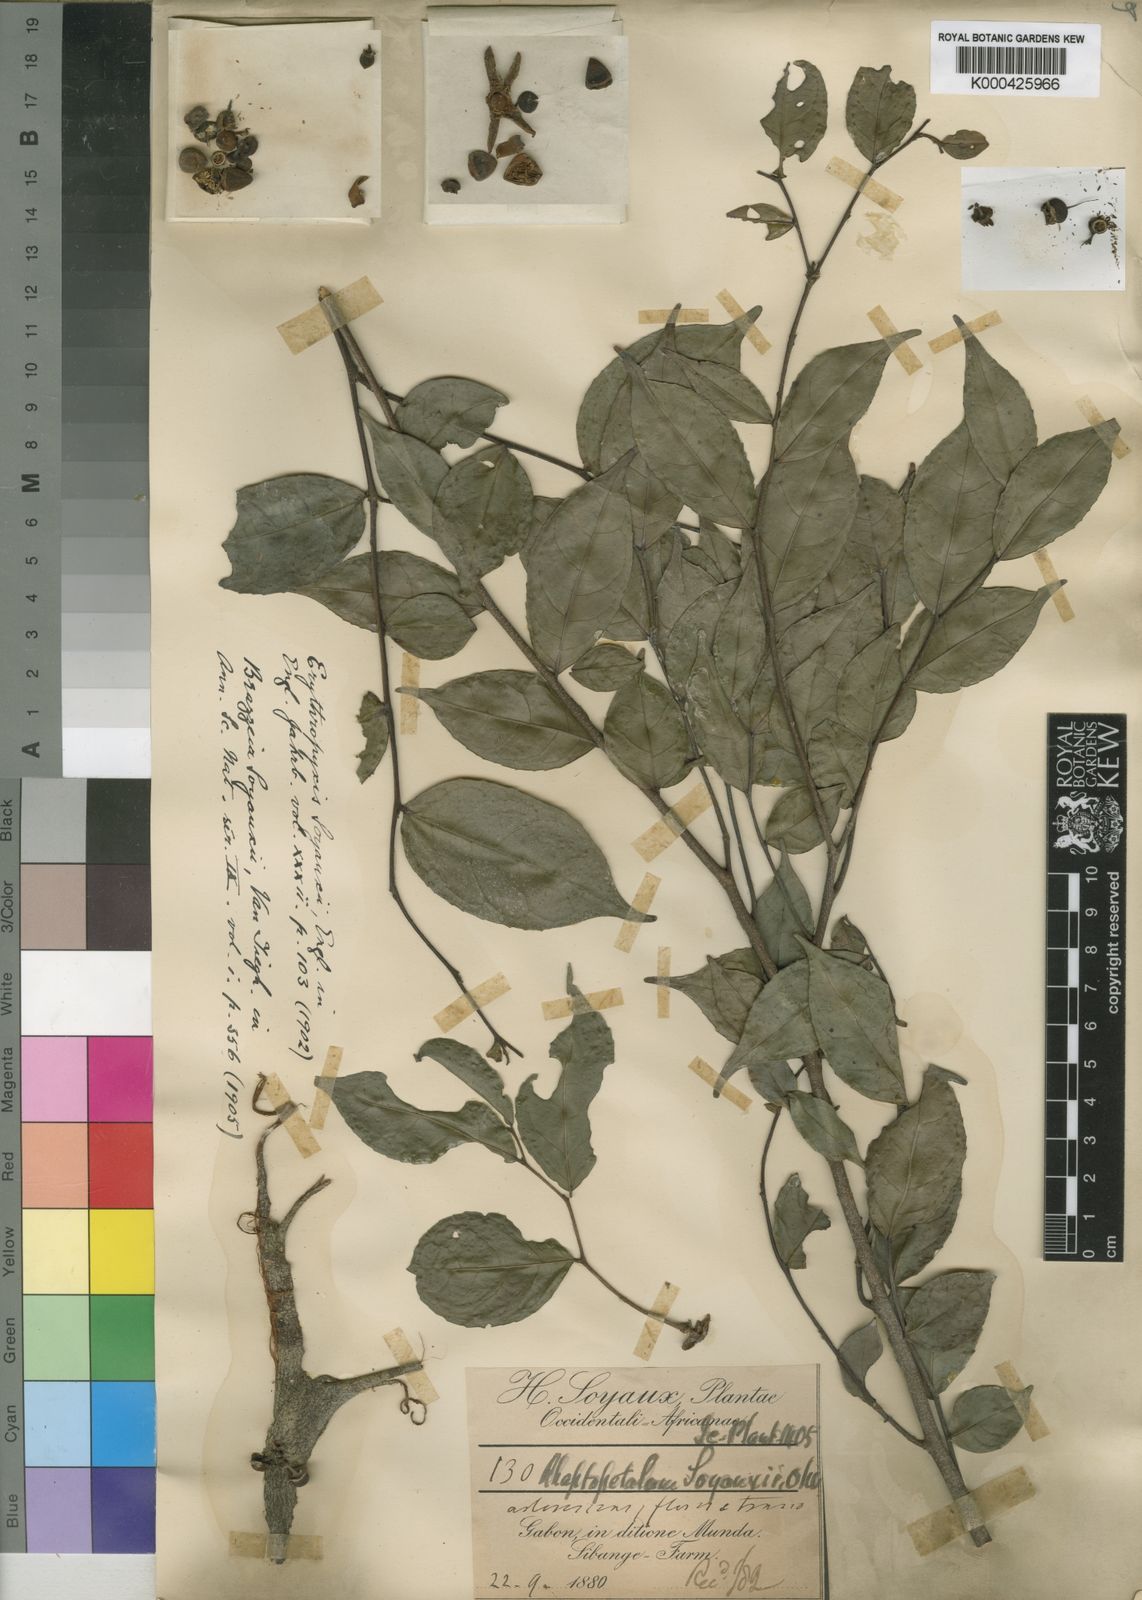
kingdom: Plantae
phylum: Tracheophyta
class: Magnoliopsida
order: Ericales
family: Lecythidaceae
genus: Brazzeia
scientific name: Brazzeia soyauxii
